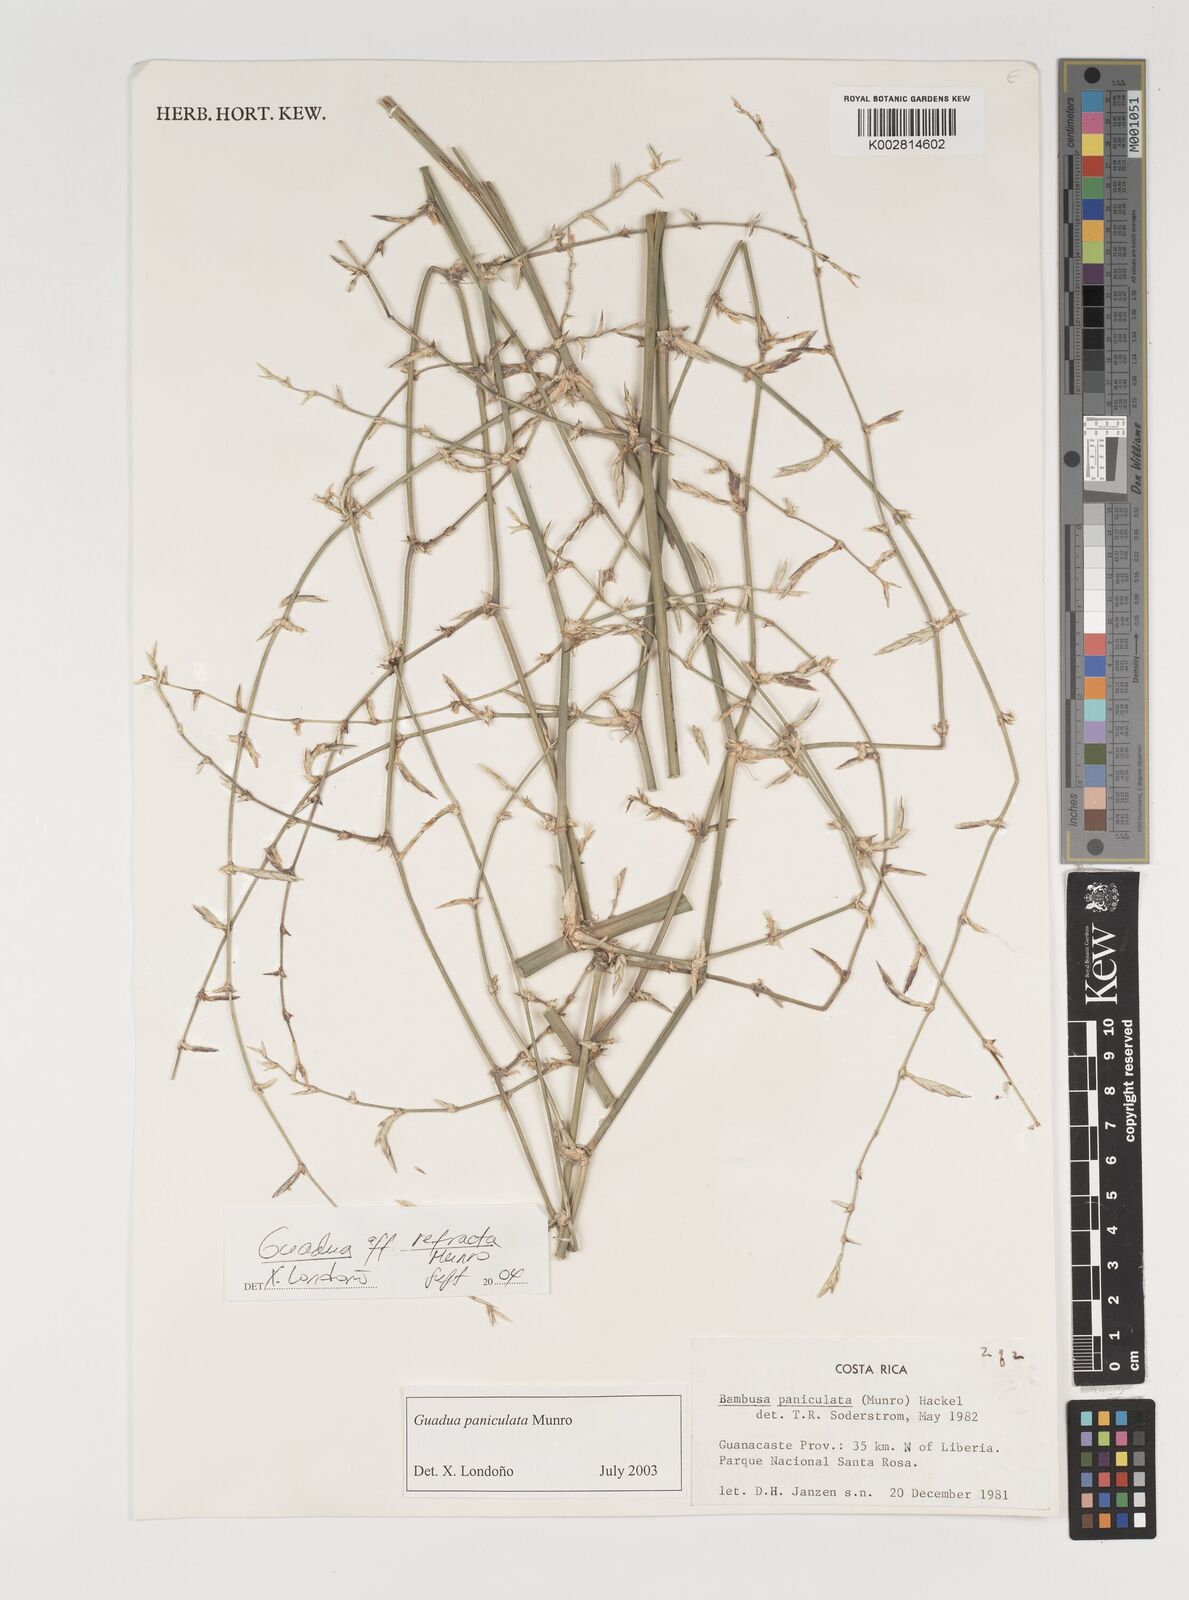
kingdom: Plantae
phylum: Tracheophyta
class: Liliopsida
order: Poales
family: Poaceae
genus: Guadua
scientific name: Guadua
